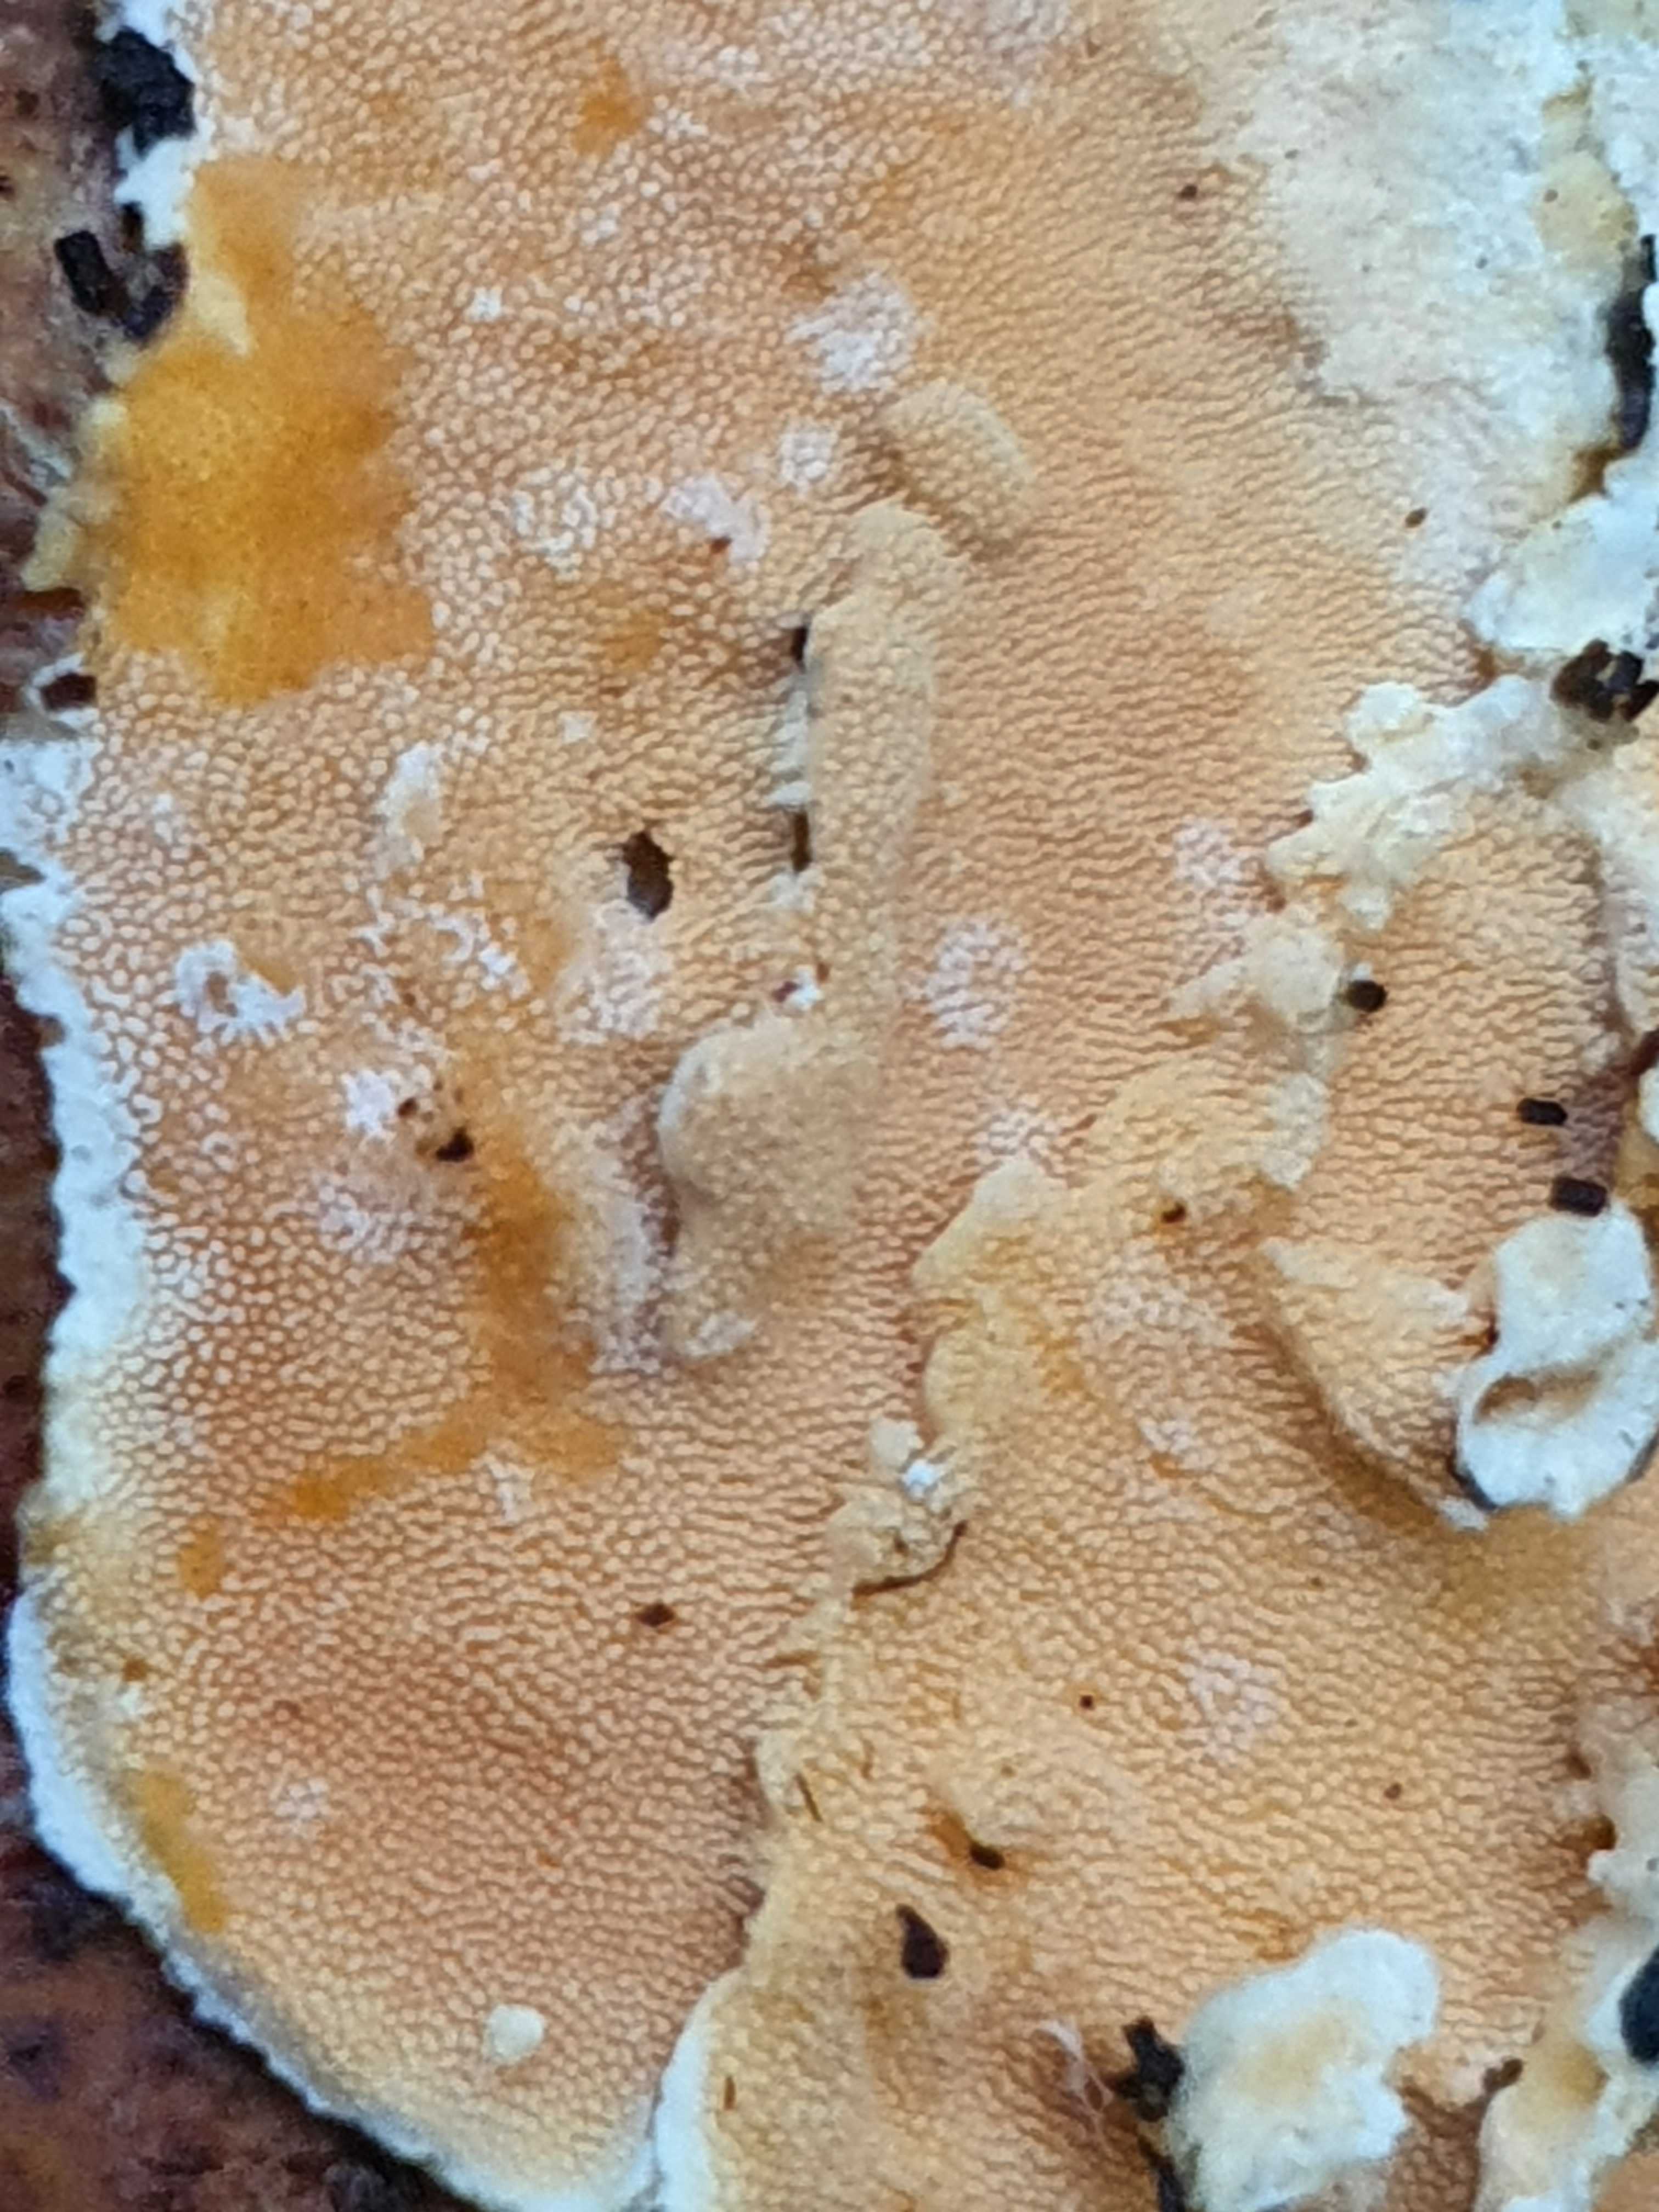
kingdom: Fungi
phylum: Basidiomycota
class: Agaricomycetes
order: Polyporales
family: Steccherinaceae
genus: Steccherinum
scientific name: Steccherinum ochraceum
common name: almindelig skønpig
